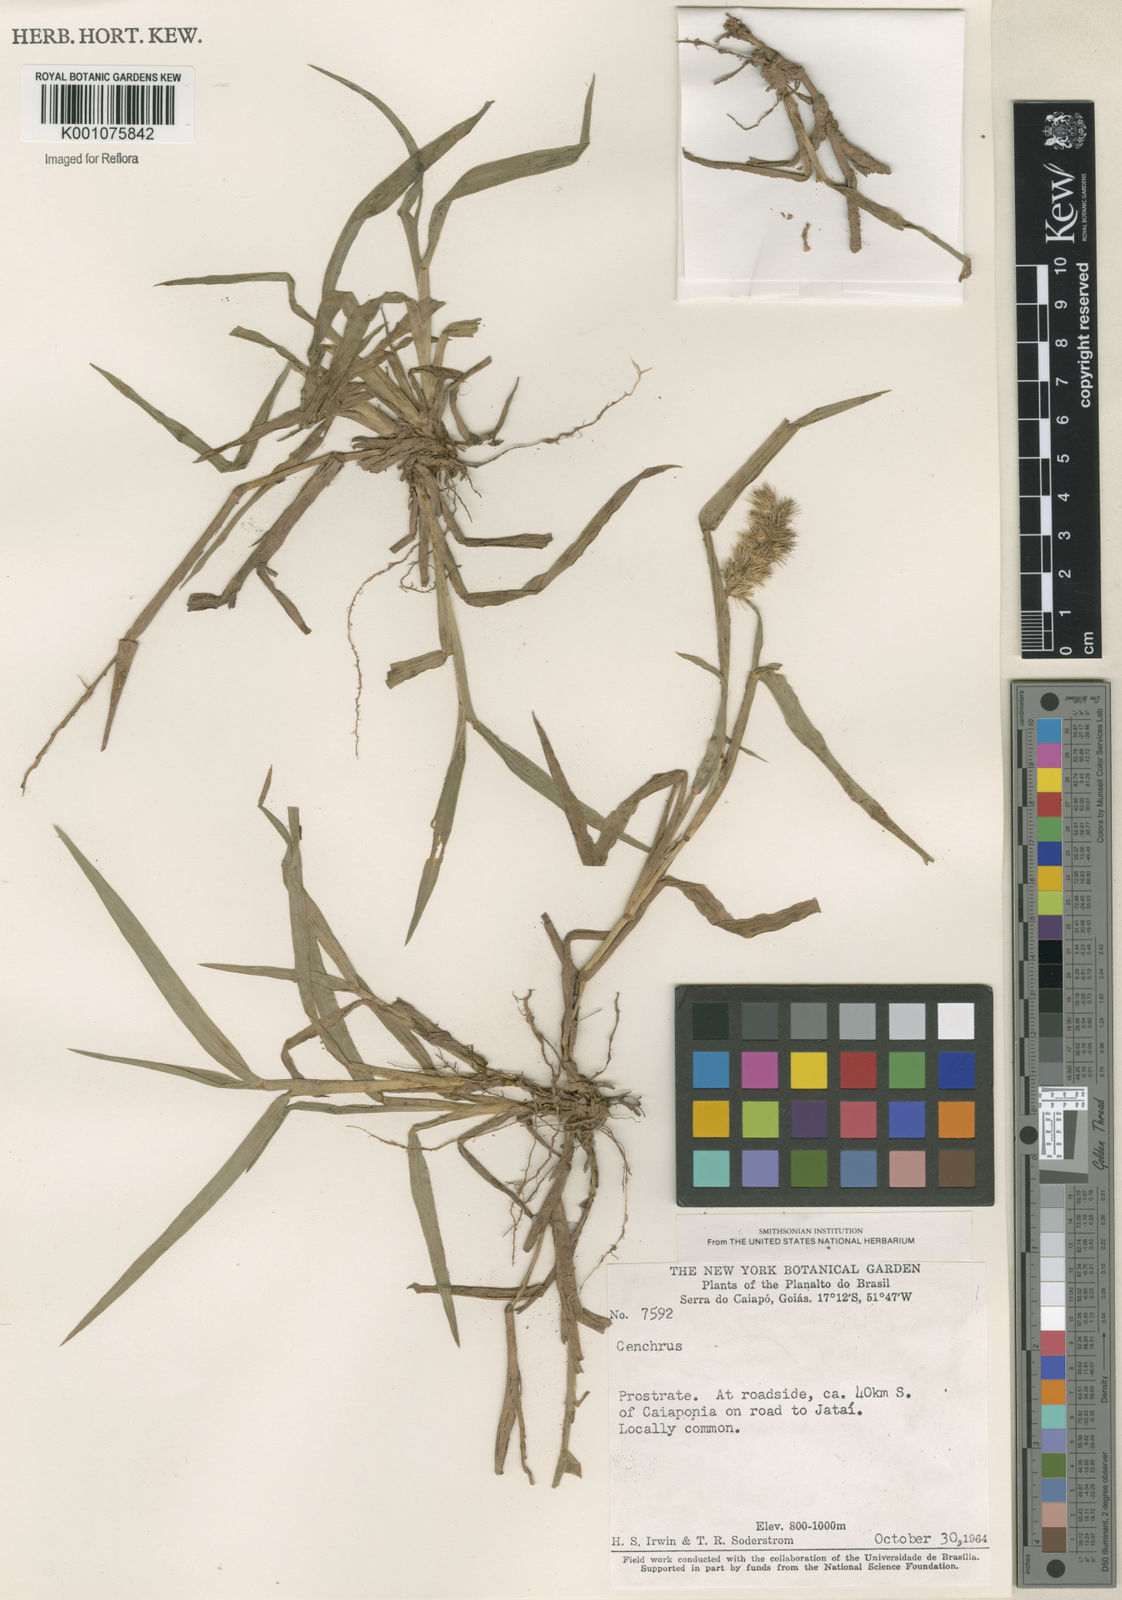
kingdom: Plantae
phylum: Tracheophyta
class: Liliopsida
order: Poales
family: Poaceae
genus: Cenchrus
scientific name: Cenchrus spinifex
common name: Coast sandbur
